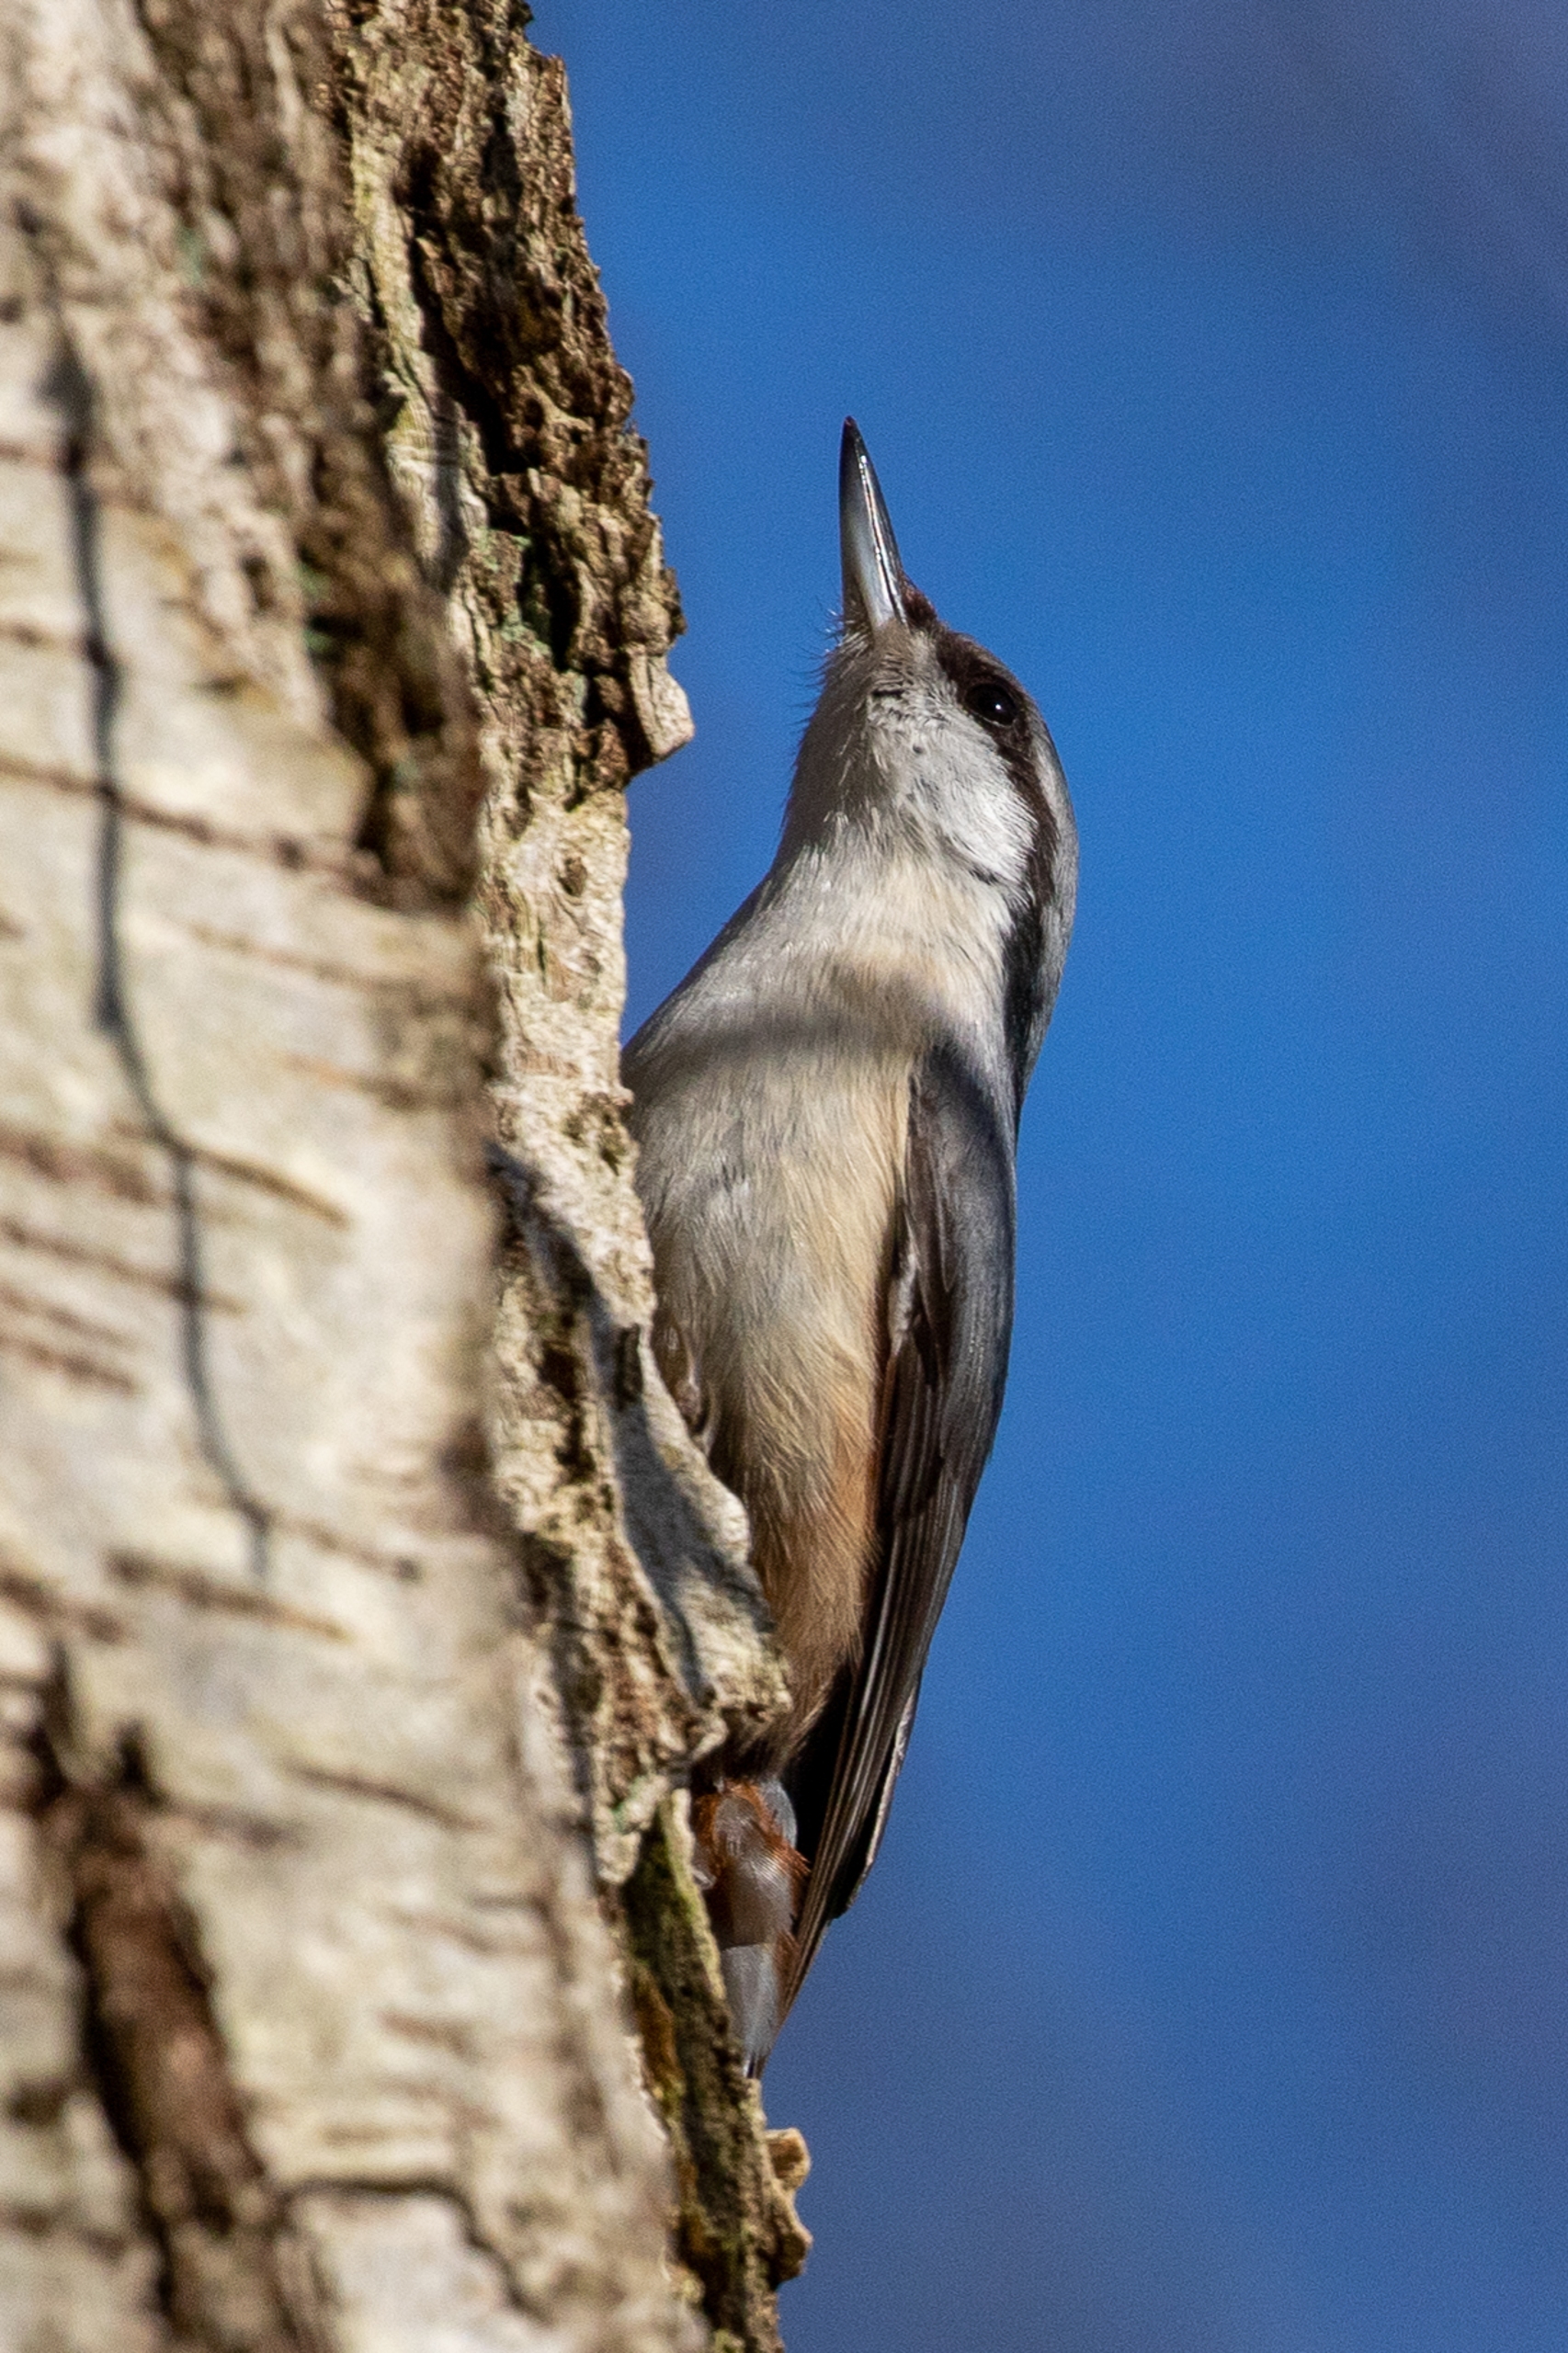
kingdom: Animalia
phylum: Chordata
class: Aves
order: Passeriformes
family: Sittidae
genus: Sitta
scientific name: Sitta europaea
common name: Spætmejse
